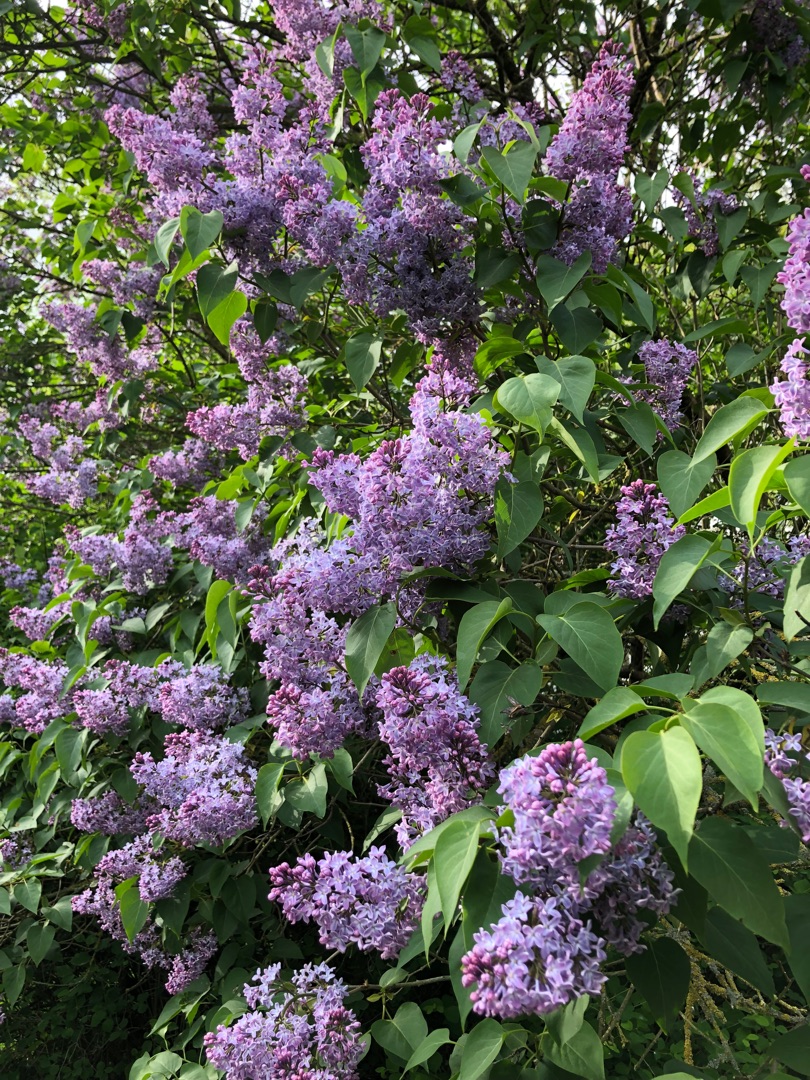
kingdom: Plantae
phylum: Tracheophyta
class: Magnoliopsida
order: Lamiales
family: Oleaceae
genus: Syringa
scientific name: Syringa vulgaris
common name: Syren
